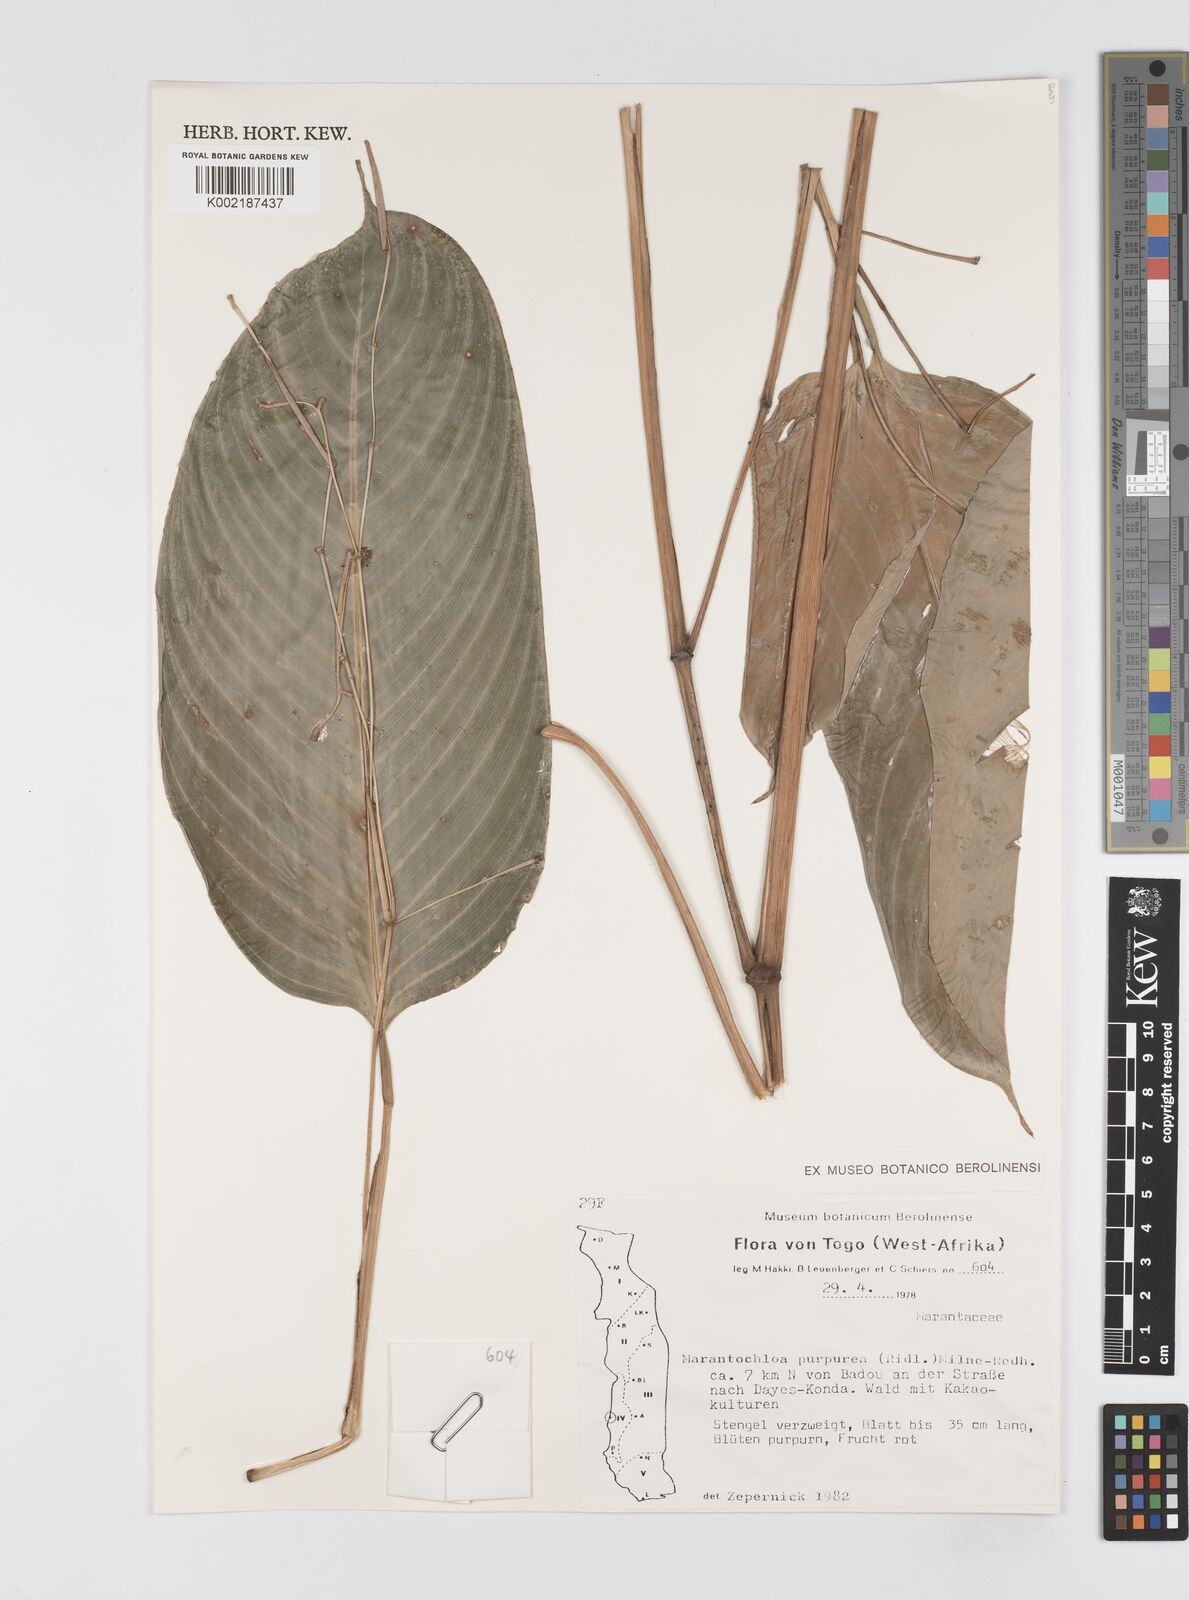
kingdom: Plantae
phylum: Tracheophyta
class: Liliopsida
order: Zingiberales
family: Marantaceae
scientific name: Marantaceae
